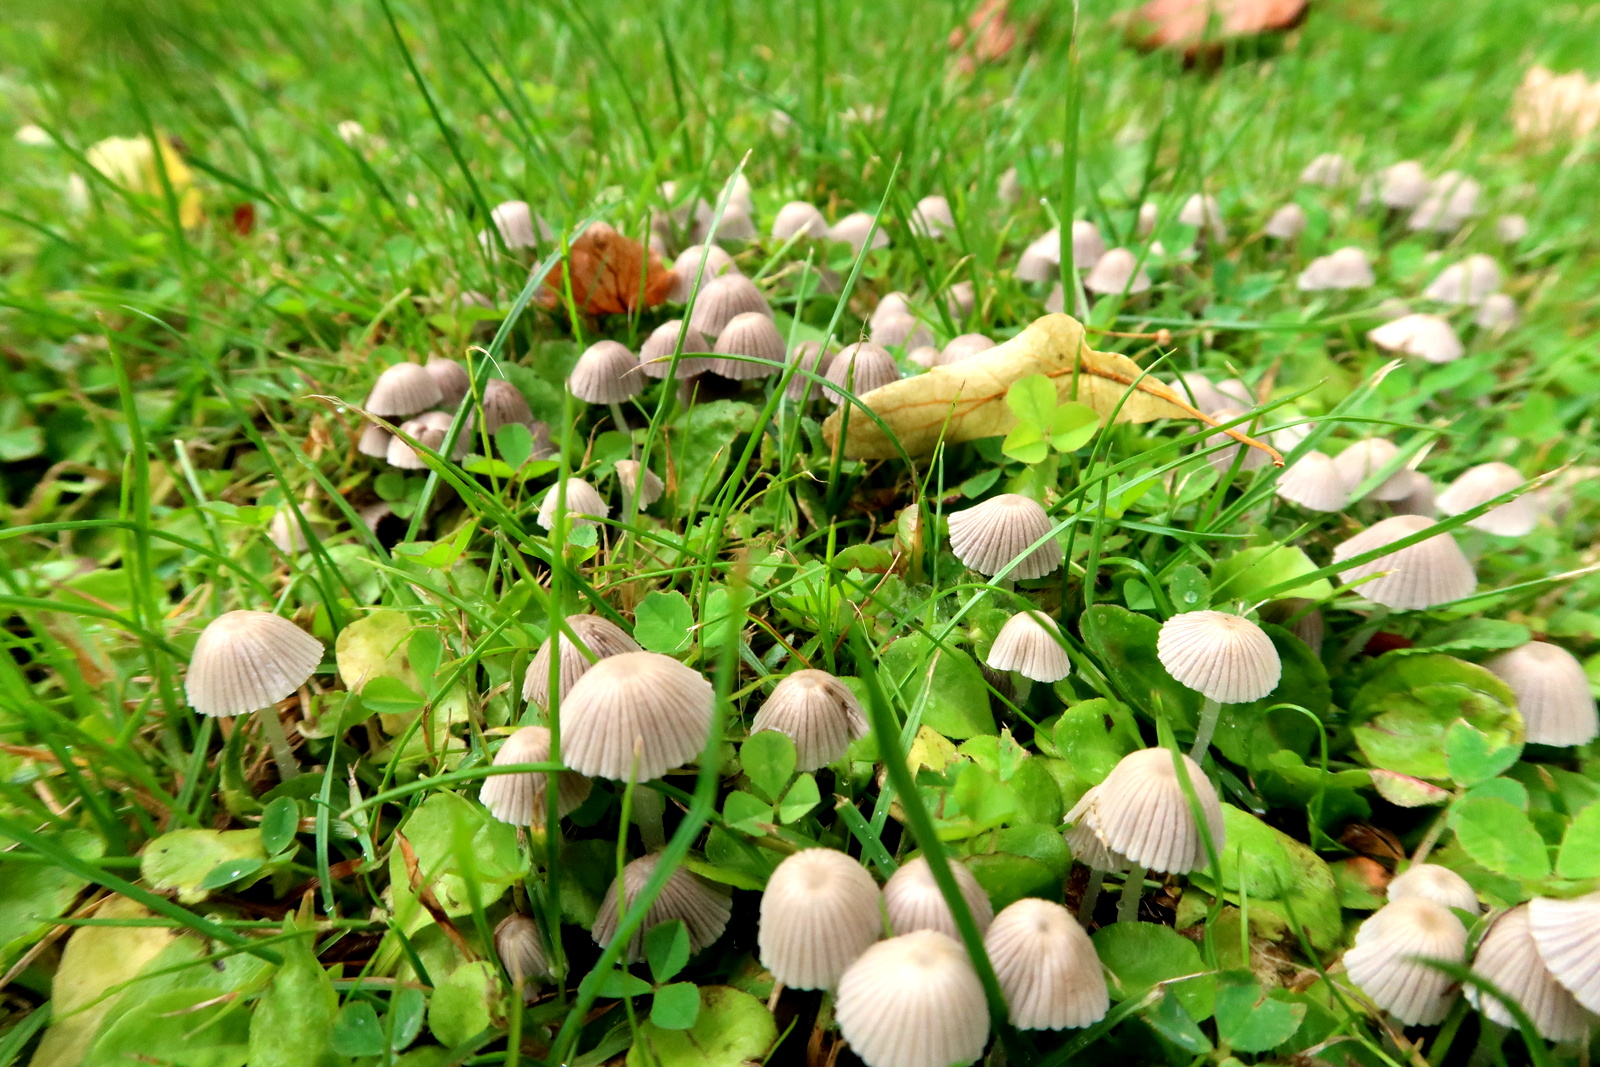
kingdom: Fungi
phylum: Basidiomycota
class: Agaricomycetes
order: Agaricales
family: Psathyrellaceae
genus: Coprinellus
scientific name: Coprinellus disseminatus
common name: bredsået blækhat
